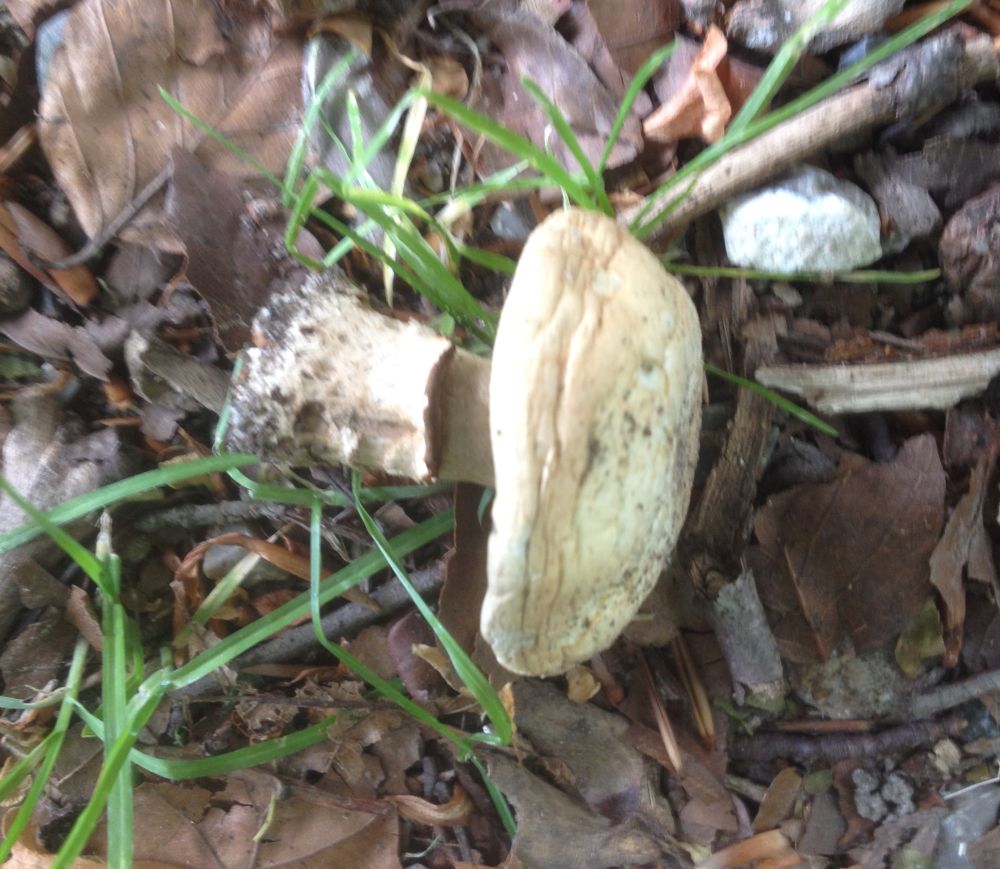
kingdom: Fungi
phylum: Basidiomycota
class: Agaricomycetes
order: Agaricales
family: Agaricaceae
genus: Agaricus
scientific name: Agaricus
